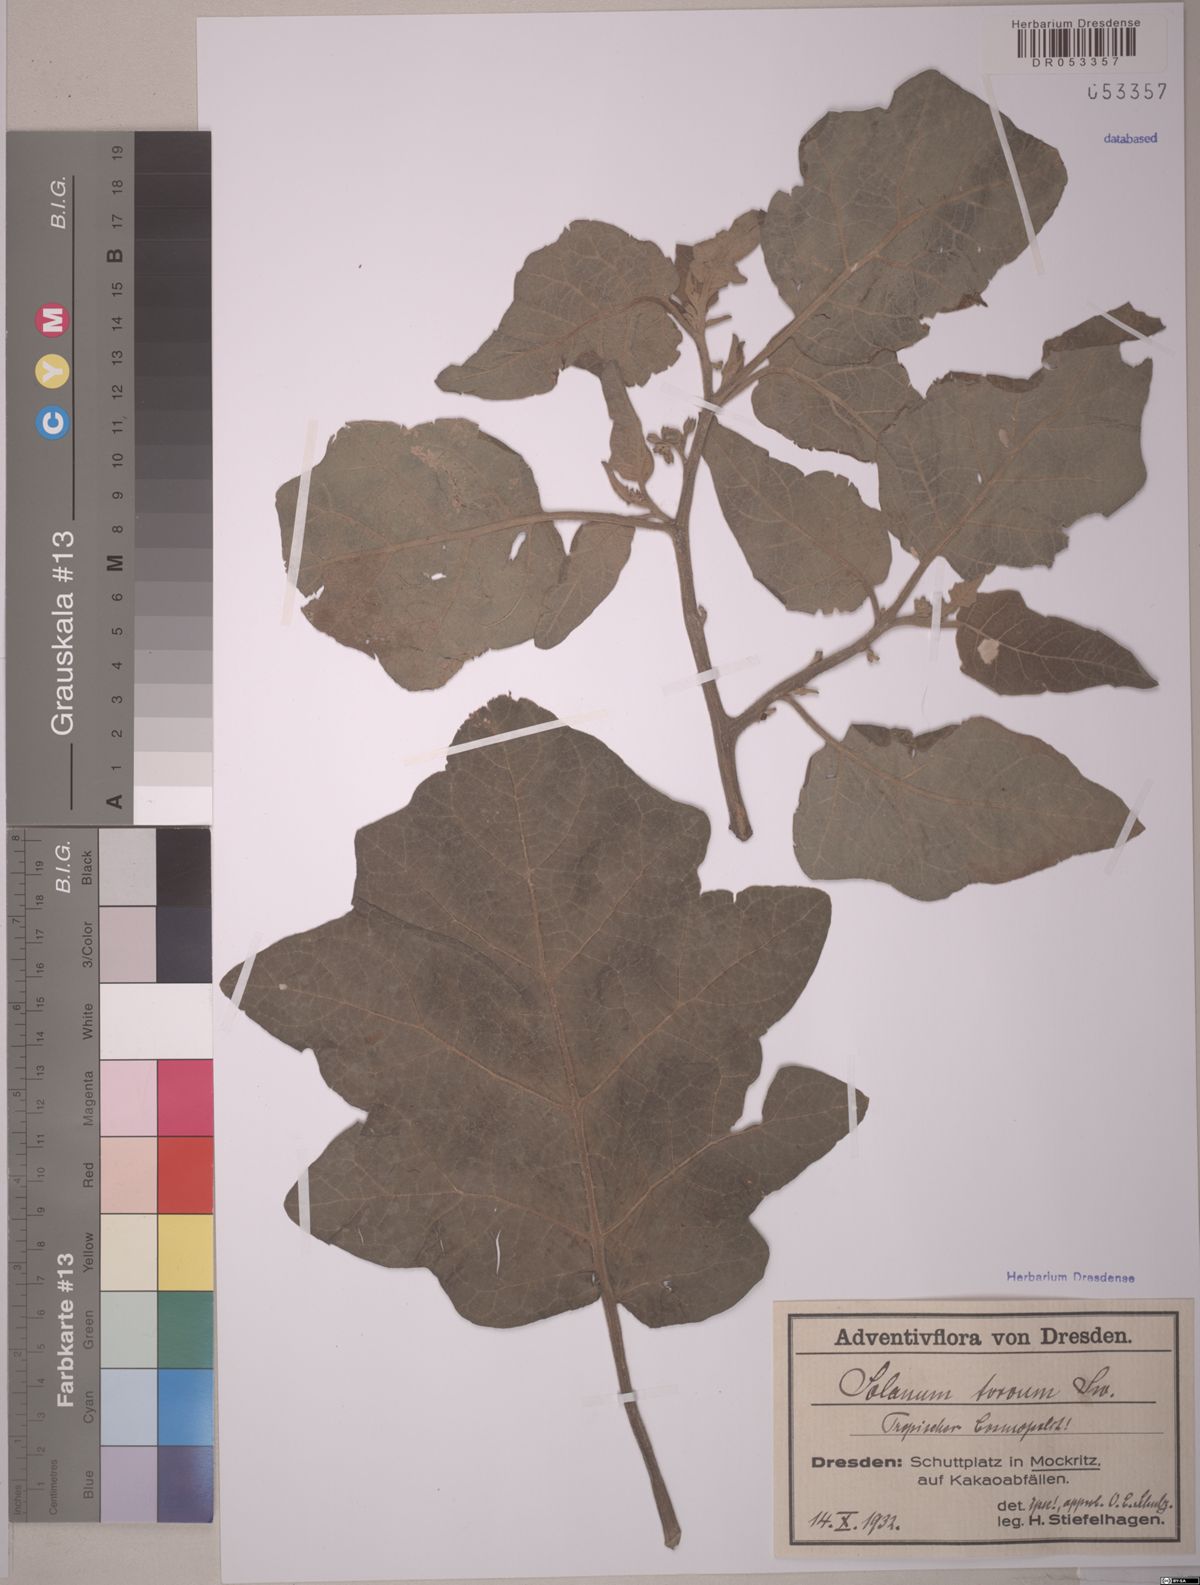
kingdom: Plantae
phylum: Tracheophyta
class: Magnoliopsida
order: Solanales
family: Solanaceae
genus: Solanum
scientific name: Solanum torvum
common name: Turkey berry
